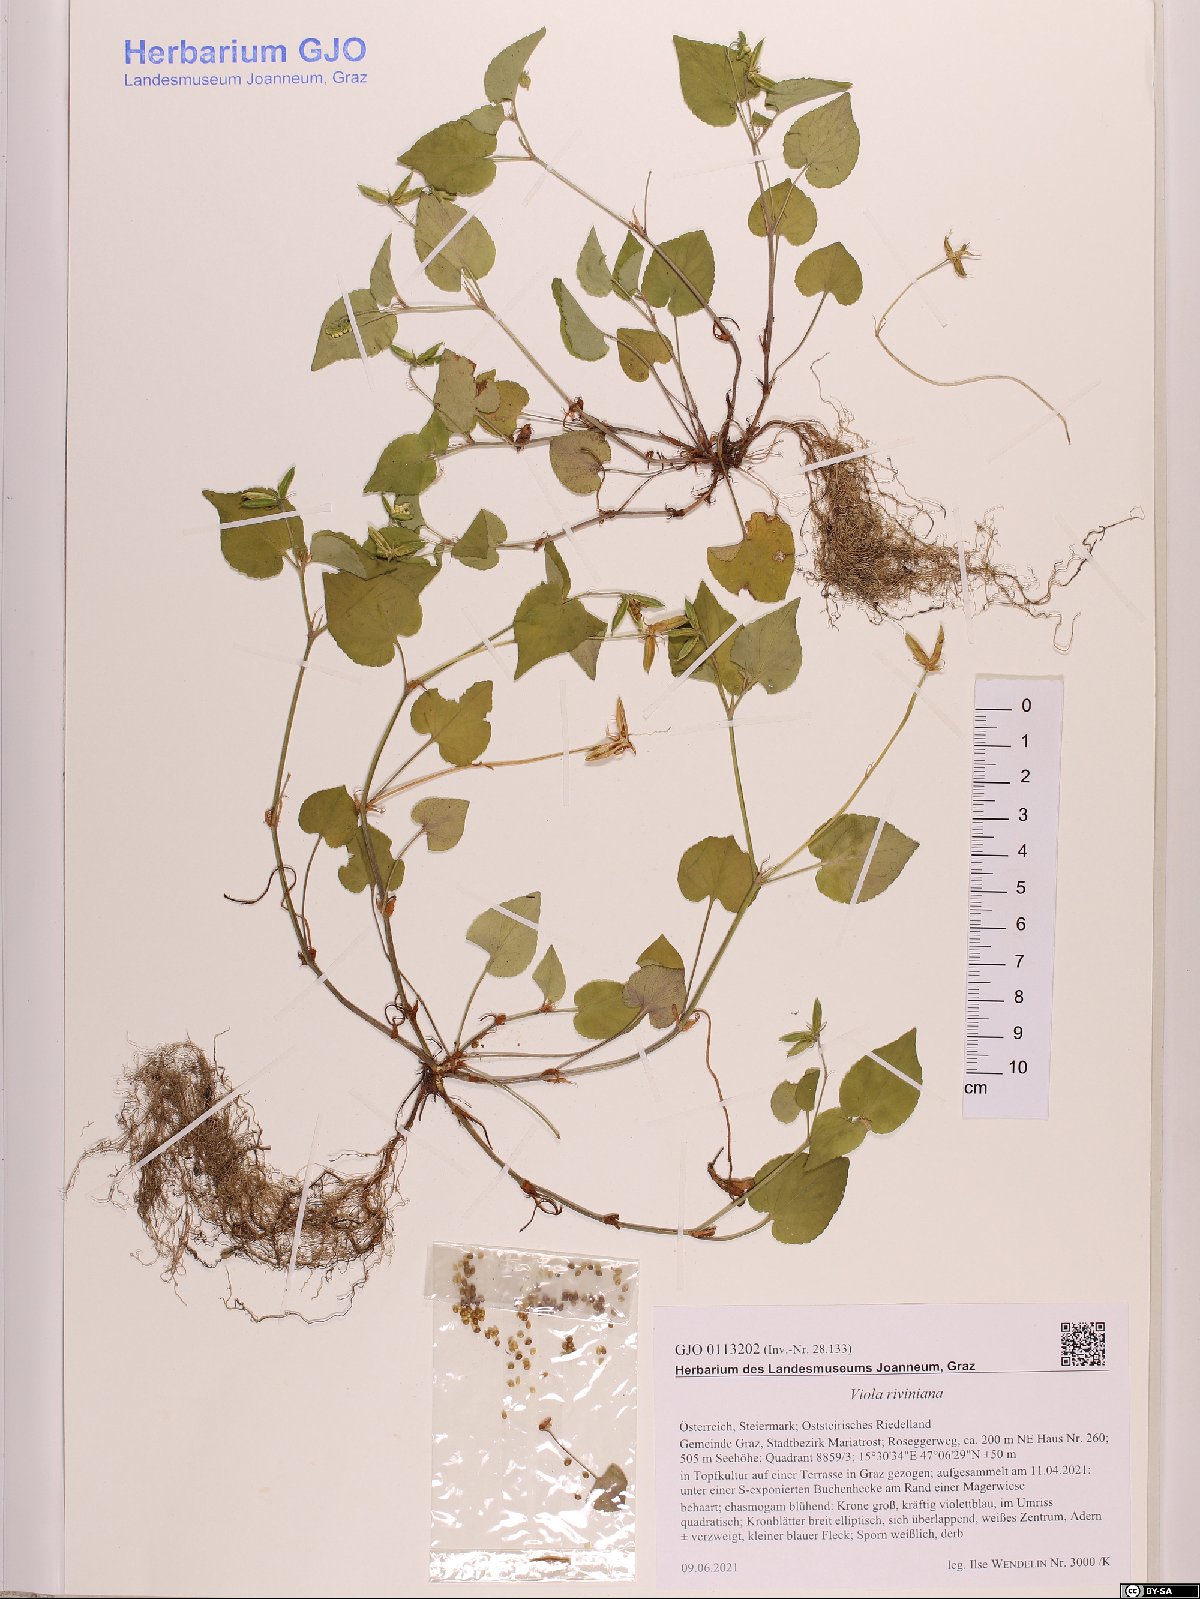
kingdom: Plantae
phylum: Tracheophyta
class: Magnoliopsida
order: Malpighiales
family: Violaceae
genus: Viola
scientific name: Viola riviniana
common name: Common dog-violet
